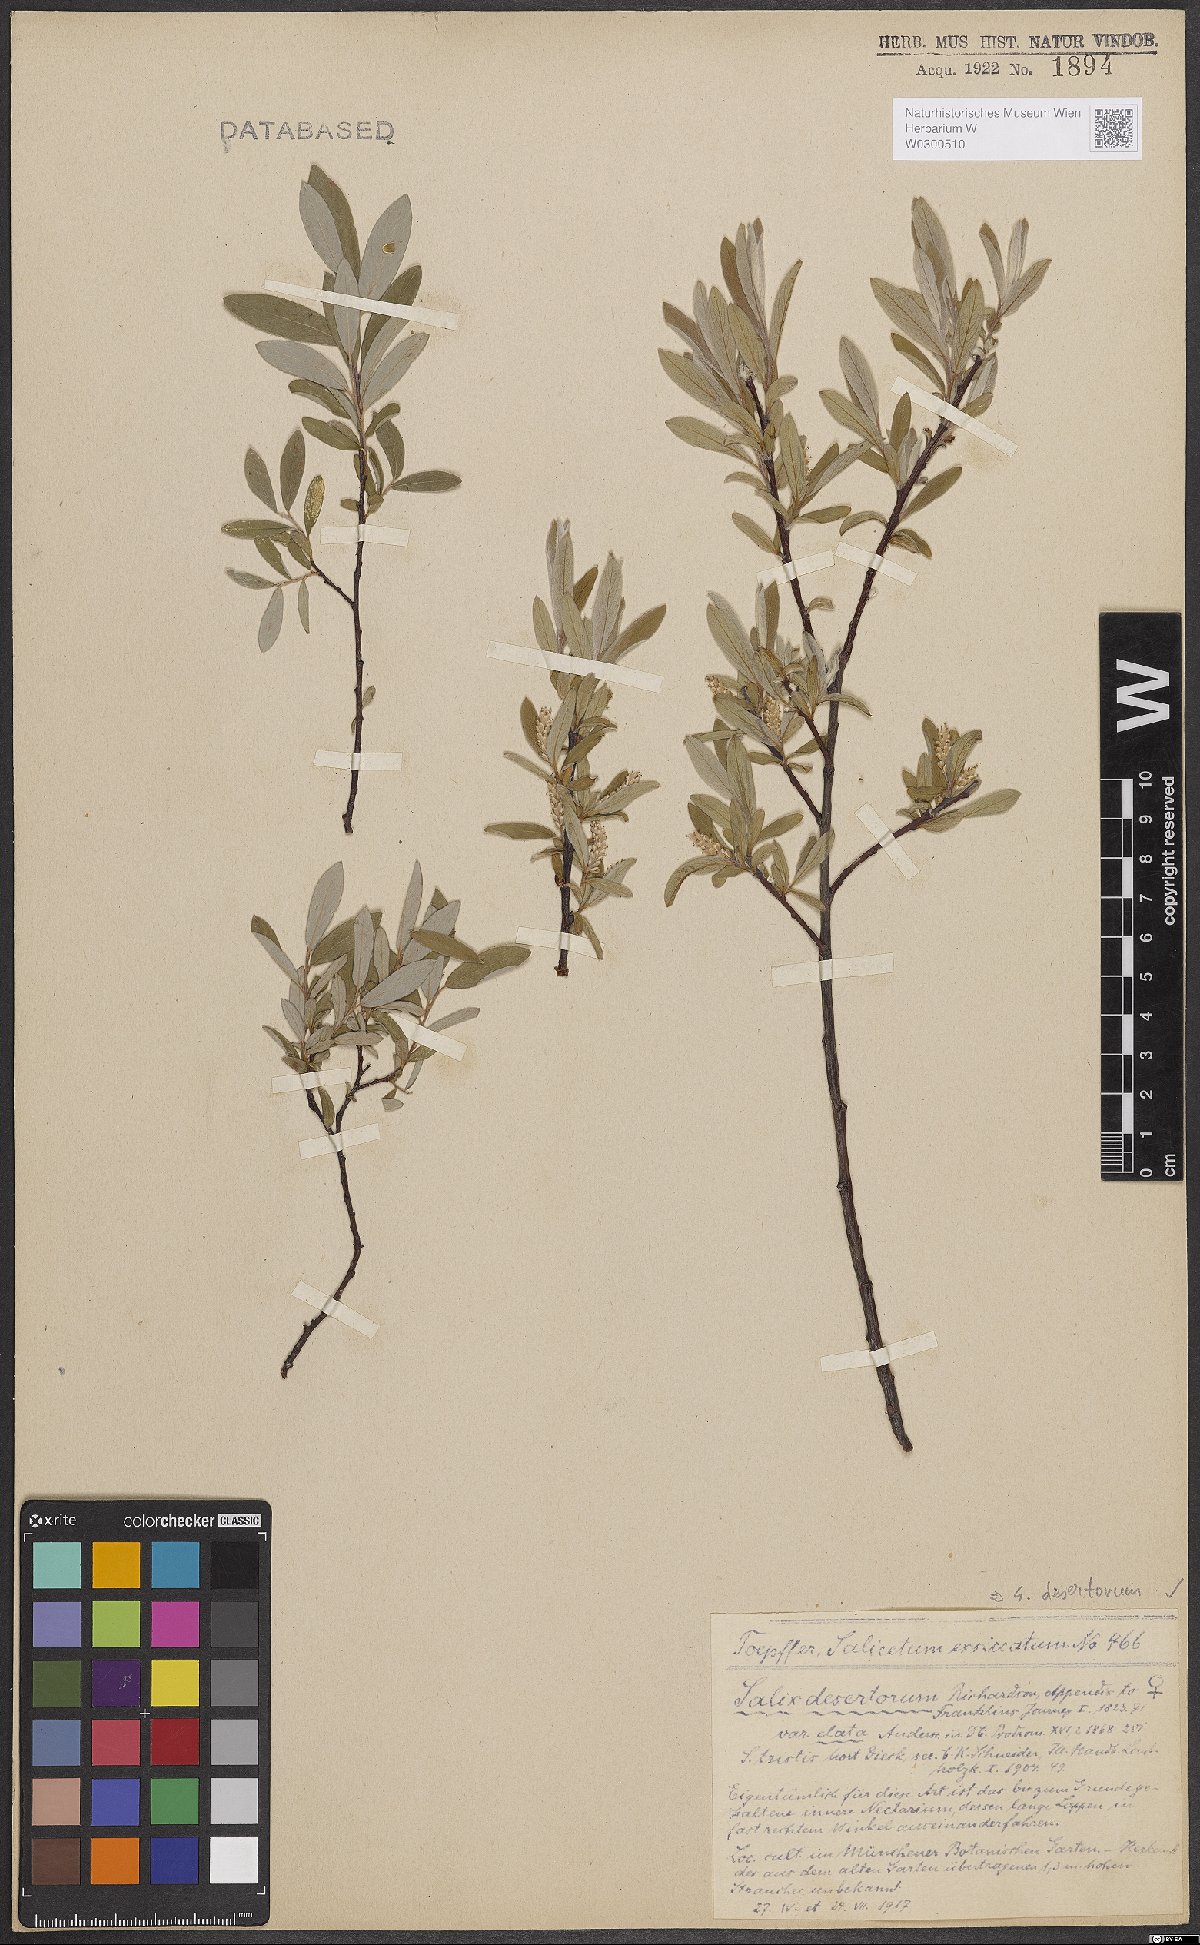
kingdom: Plantae
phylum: Tracheophyta
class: Magnoliopsida
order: Malpighiales
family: Salicaceae
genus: Salix
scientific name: Salix glauca
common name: Glaucous willow
